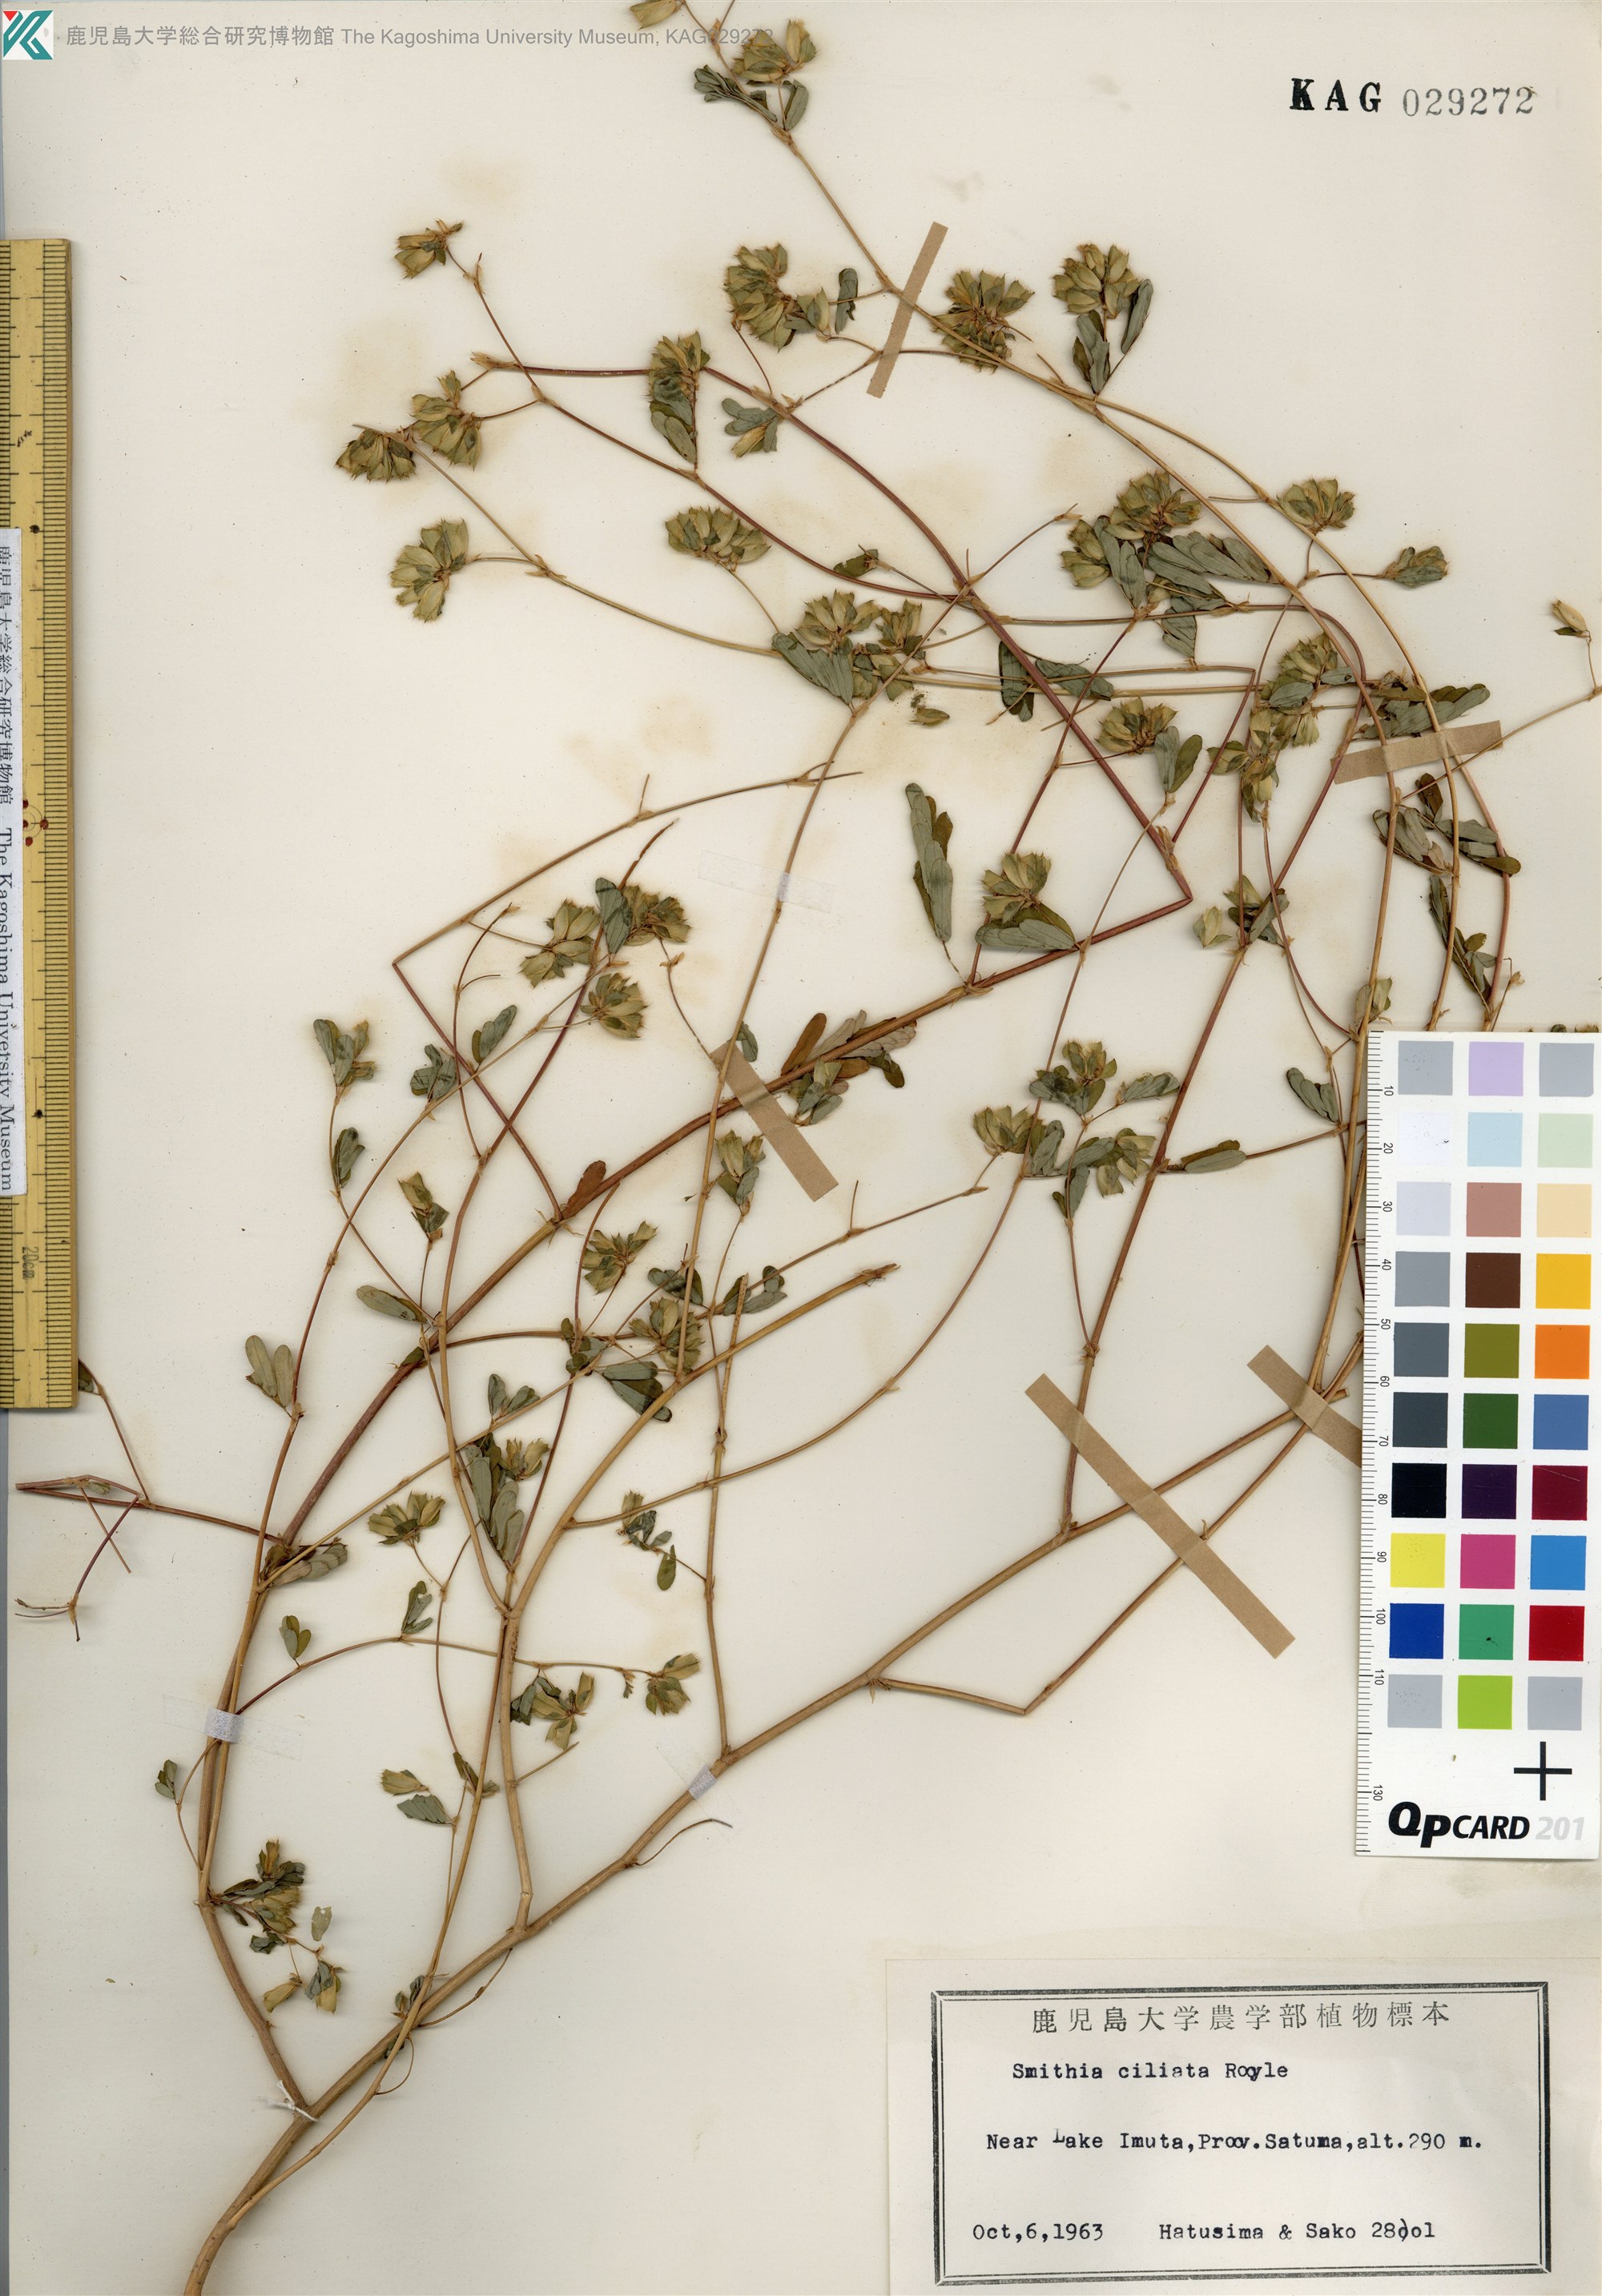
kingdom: Plantae
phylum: Tracheophyta
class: Magnoliopsida
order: Fabales
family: Fabaceae
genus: Smithia
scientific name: Smithia ciliata
